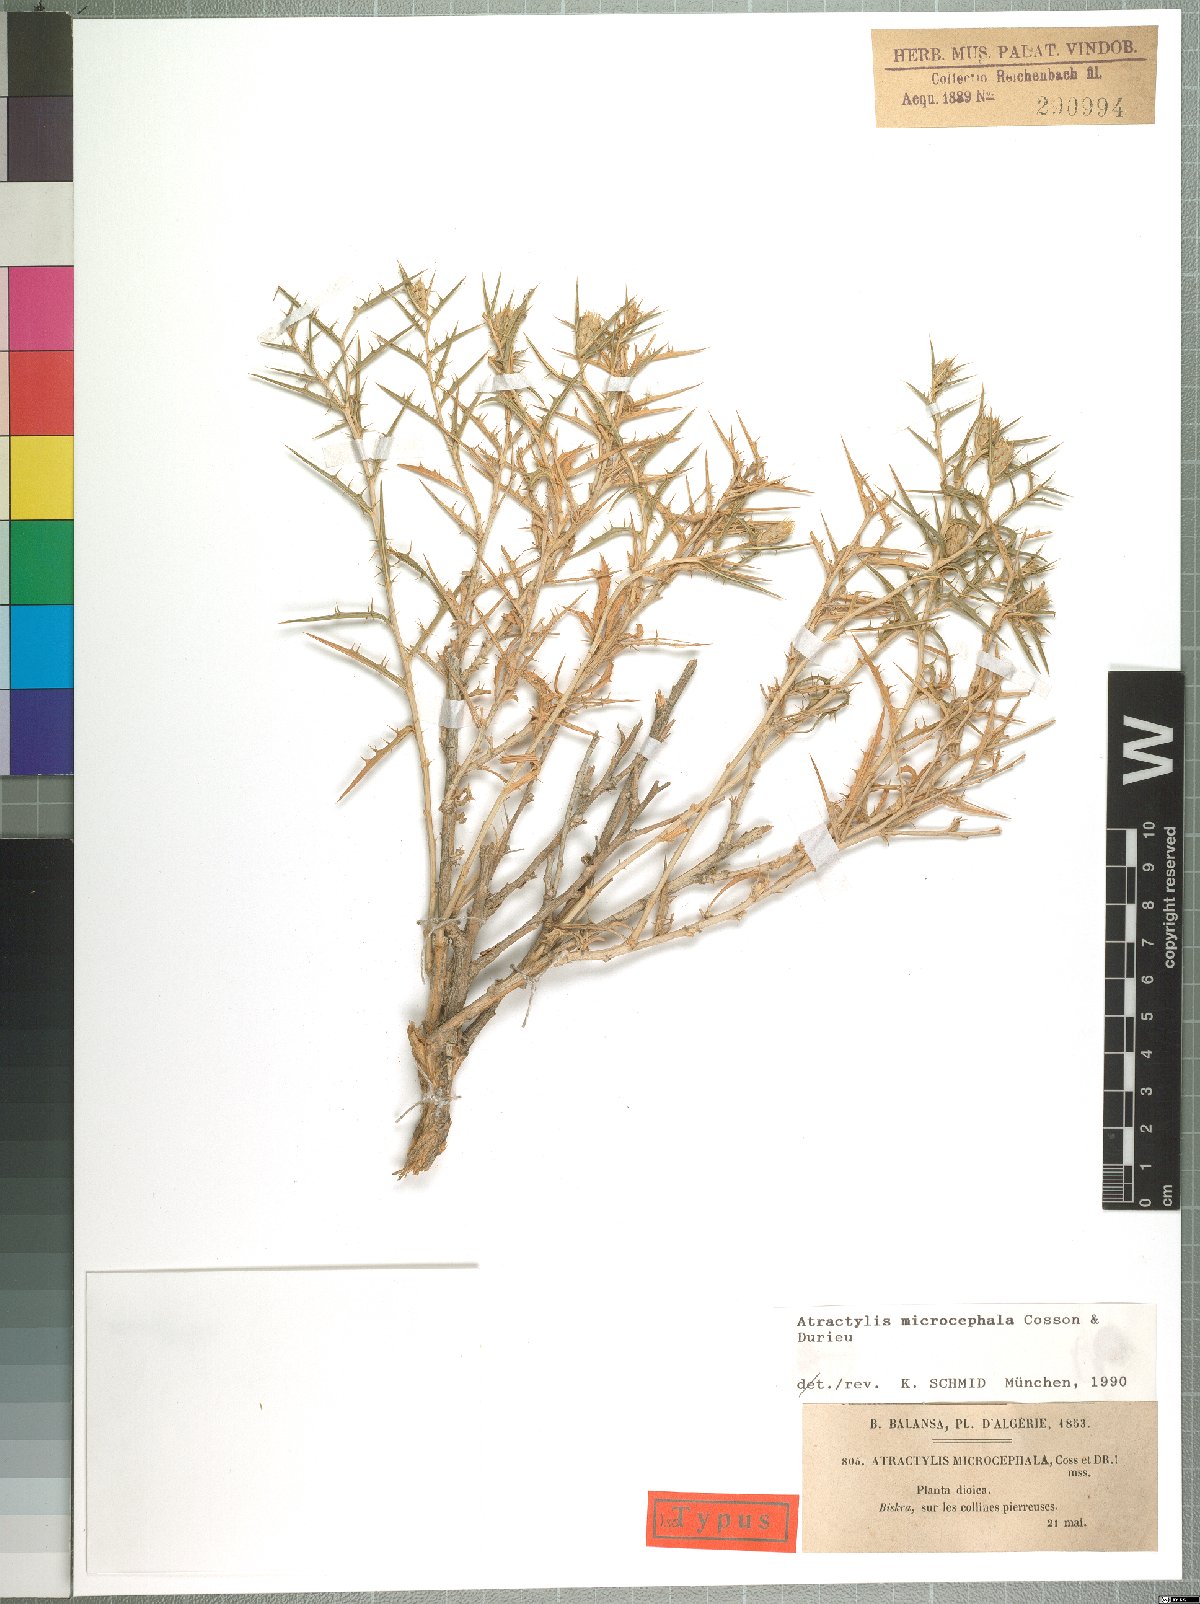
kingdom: Plantae
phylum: Tracheophyta
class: Magnoliopsida
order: Asterales
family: Asteraceae
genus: Atractylis
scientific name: Atractylis serratuloides
